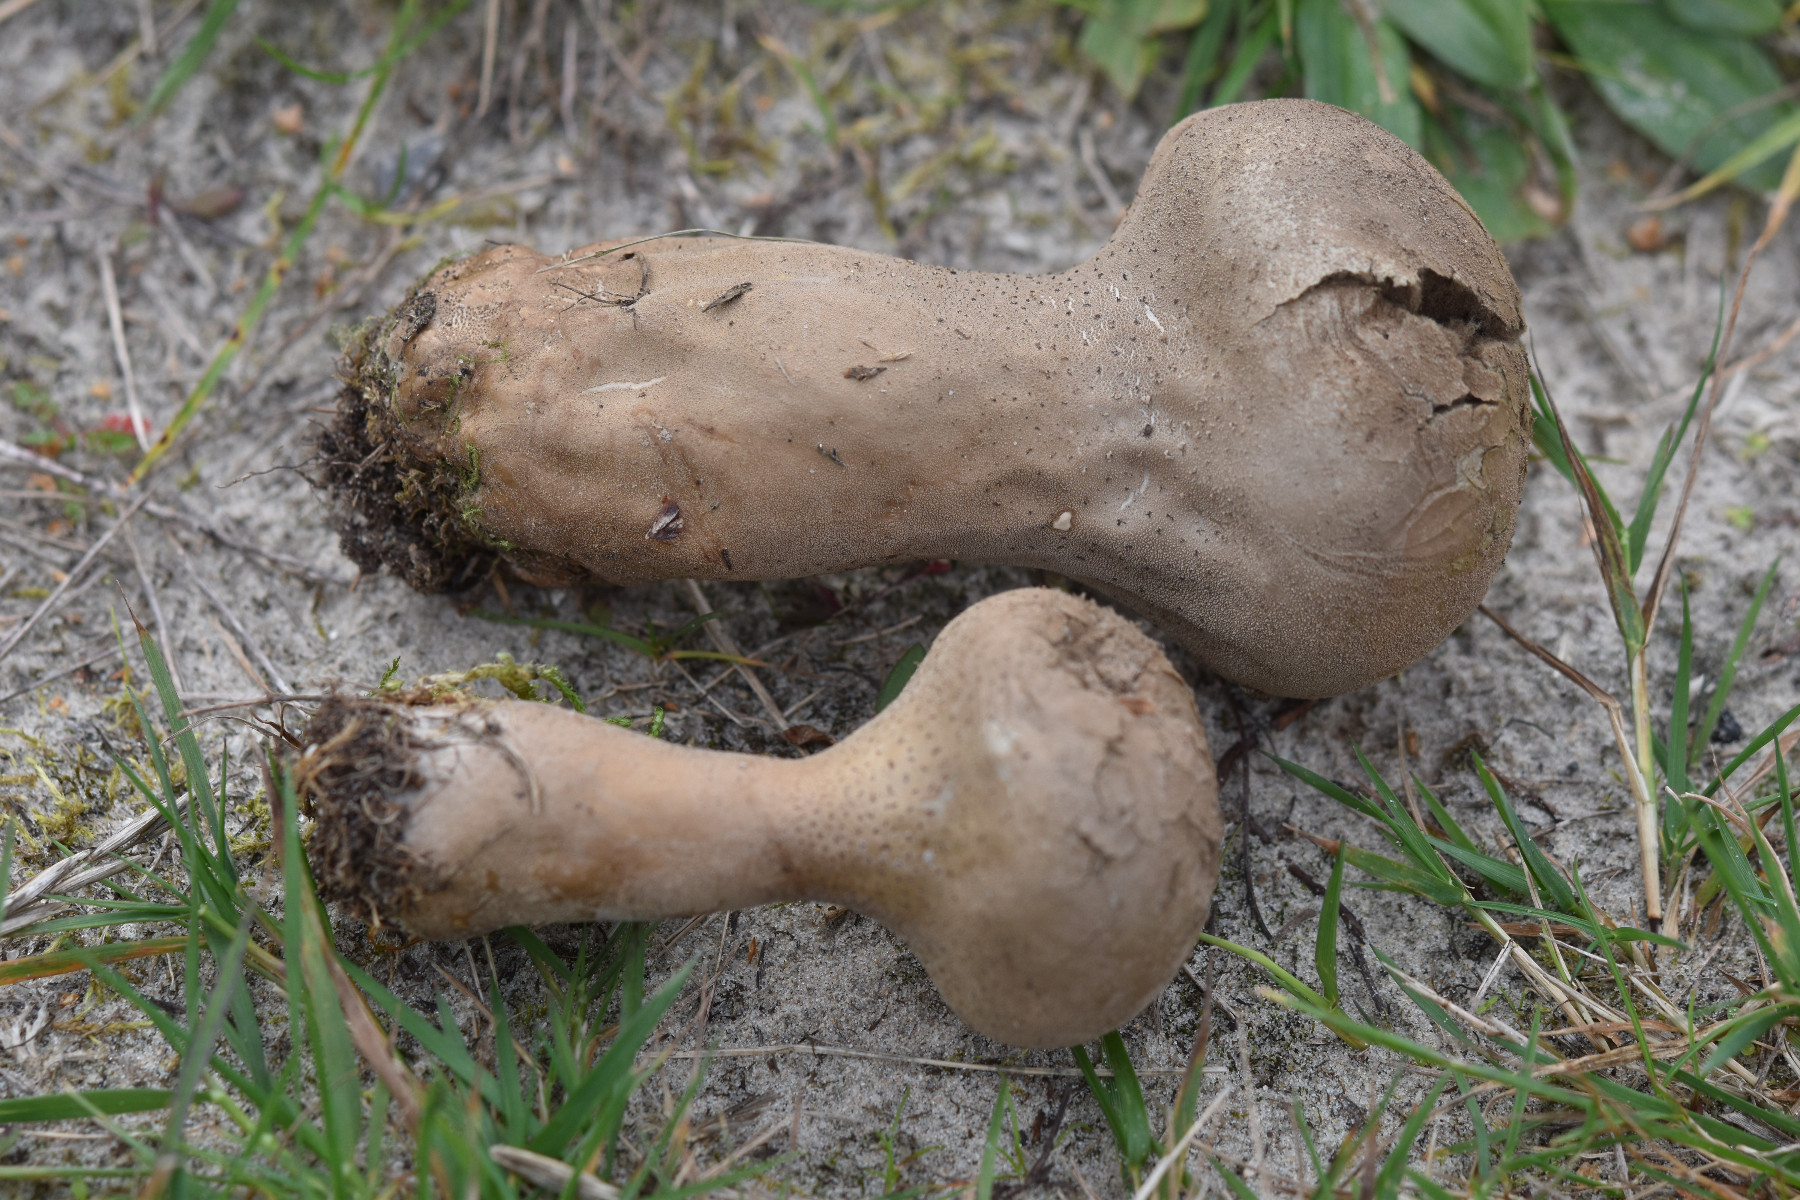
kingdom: Fungi
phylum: Basidiomycota
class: Agaricomycetes
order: Agaricales
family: Lycoperdaceae
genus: Lycoperdon
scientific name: Lycoperdon excipuliforme
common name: højstokket støvbold
